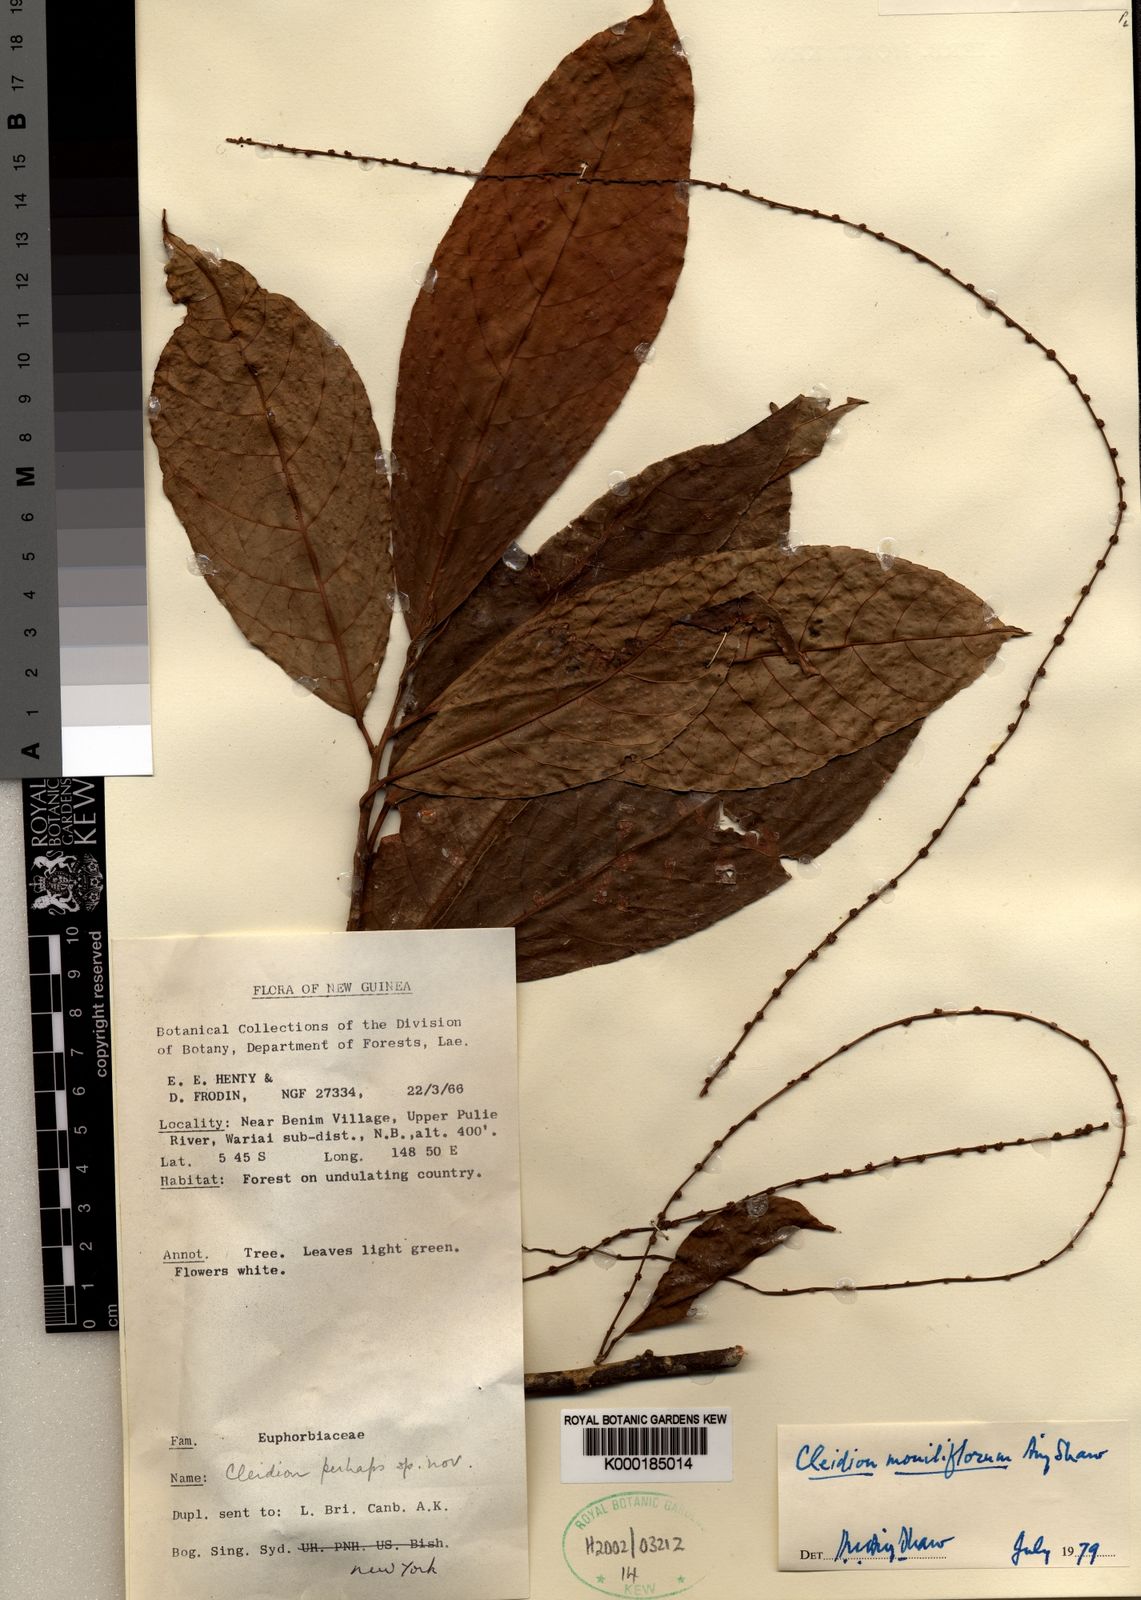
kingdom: Plantae
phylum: Tracheophyta
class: Magnoliopsida
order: Malpighiales
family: Euphorbiaceae
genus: Cleidion
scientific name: Cleidion moniliflorum
